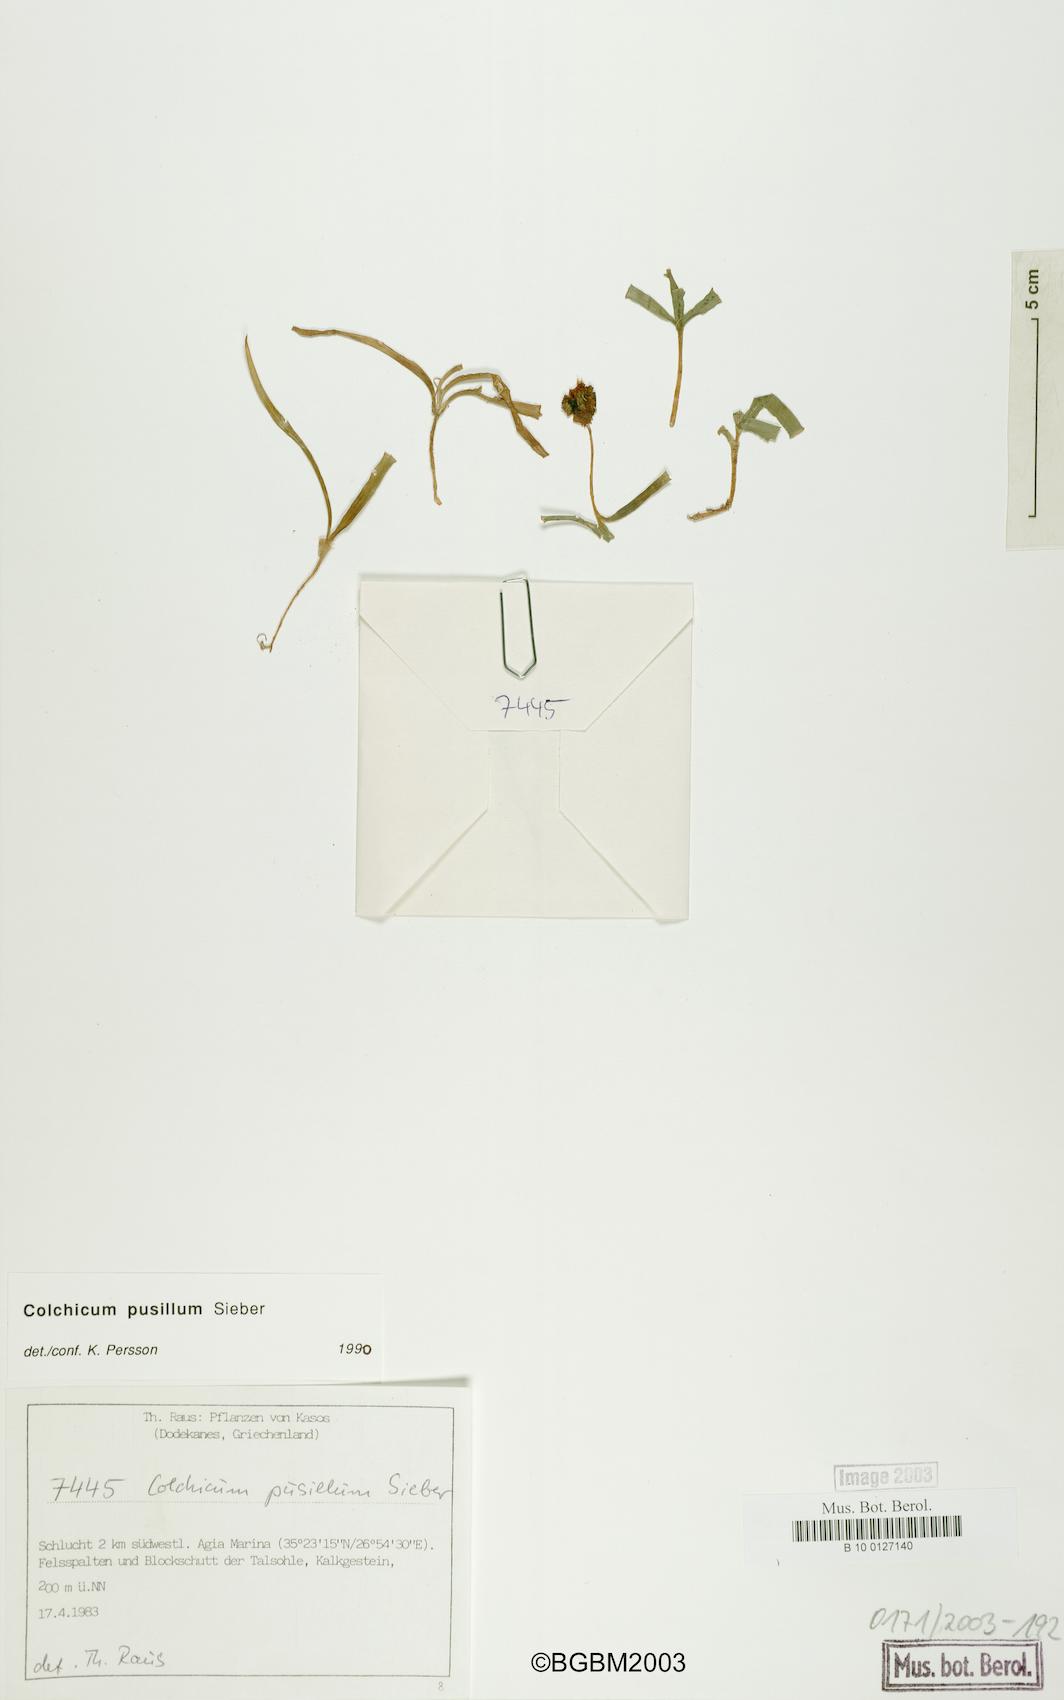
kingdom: Plantae
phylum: Tracheophyta
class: Liliopsida
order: Liliales
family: Colchicaceae
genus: Colchicum
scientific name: Colchicum pusillum
